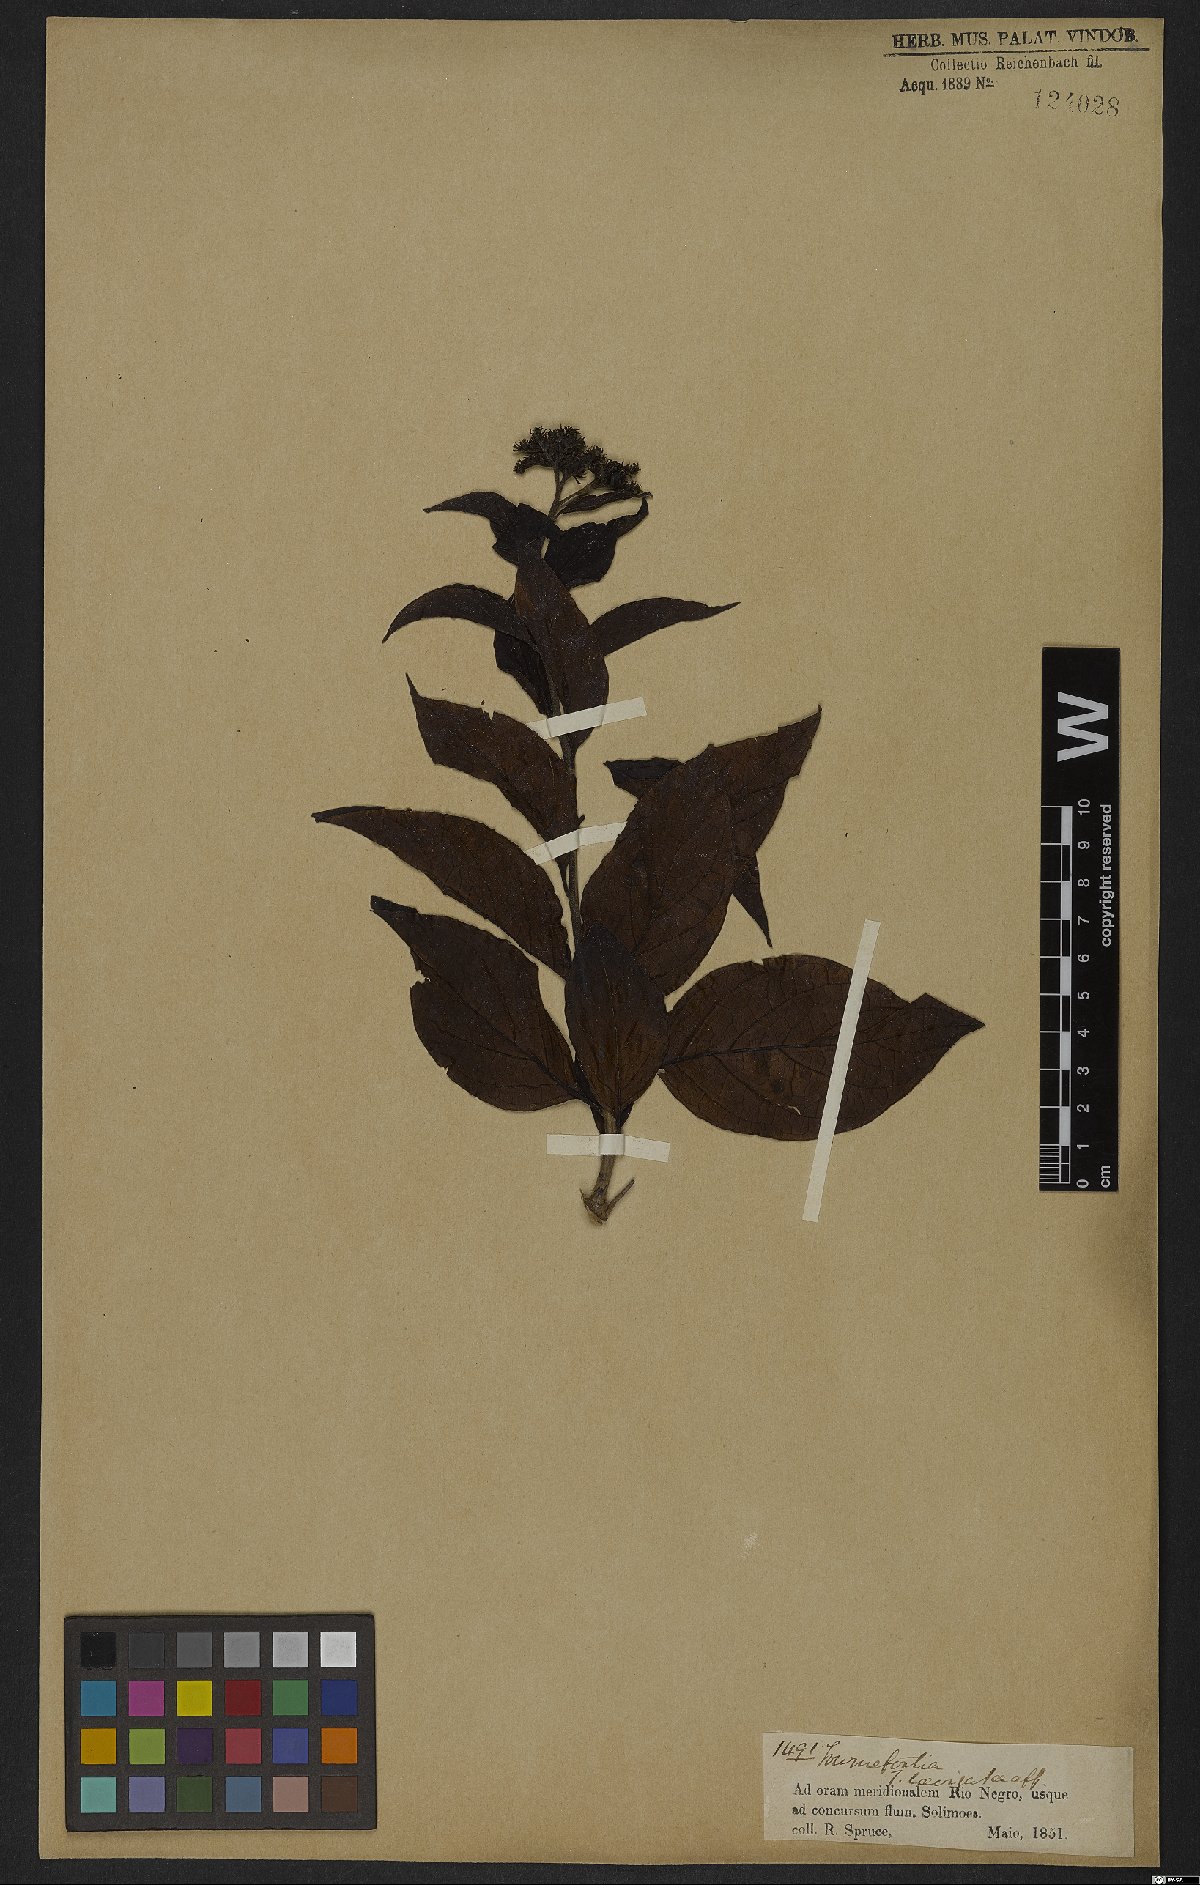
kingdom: Plantae
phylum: Tracheophyta
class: Magnoliopsida
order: Boraginales
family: Heliotropiaceae
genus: Heliotropium
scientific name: Heliotropium verdcourtii
